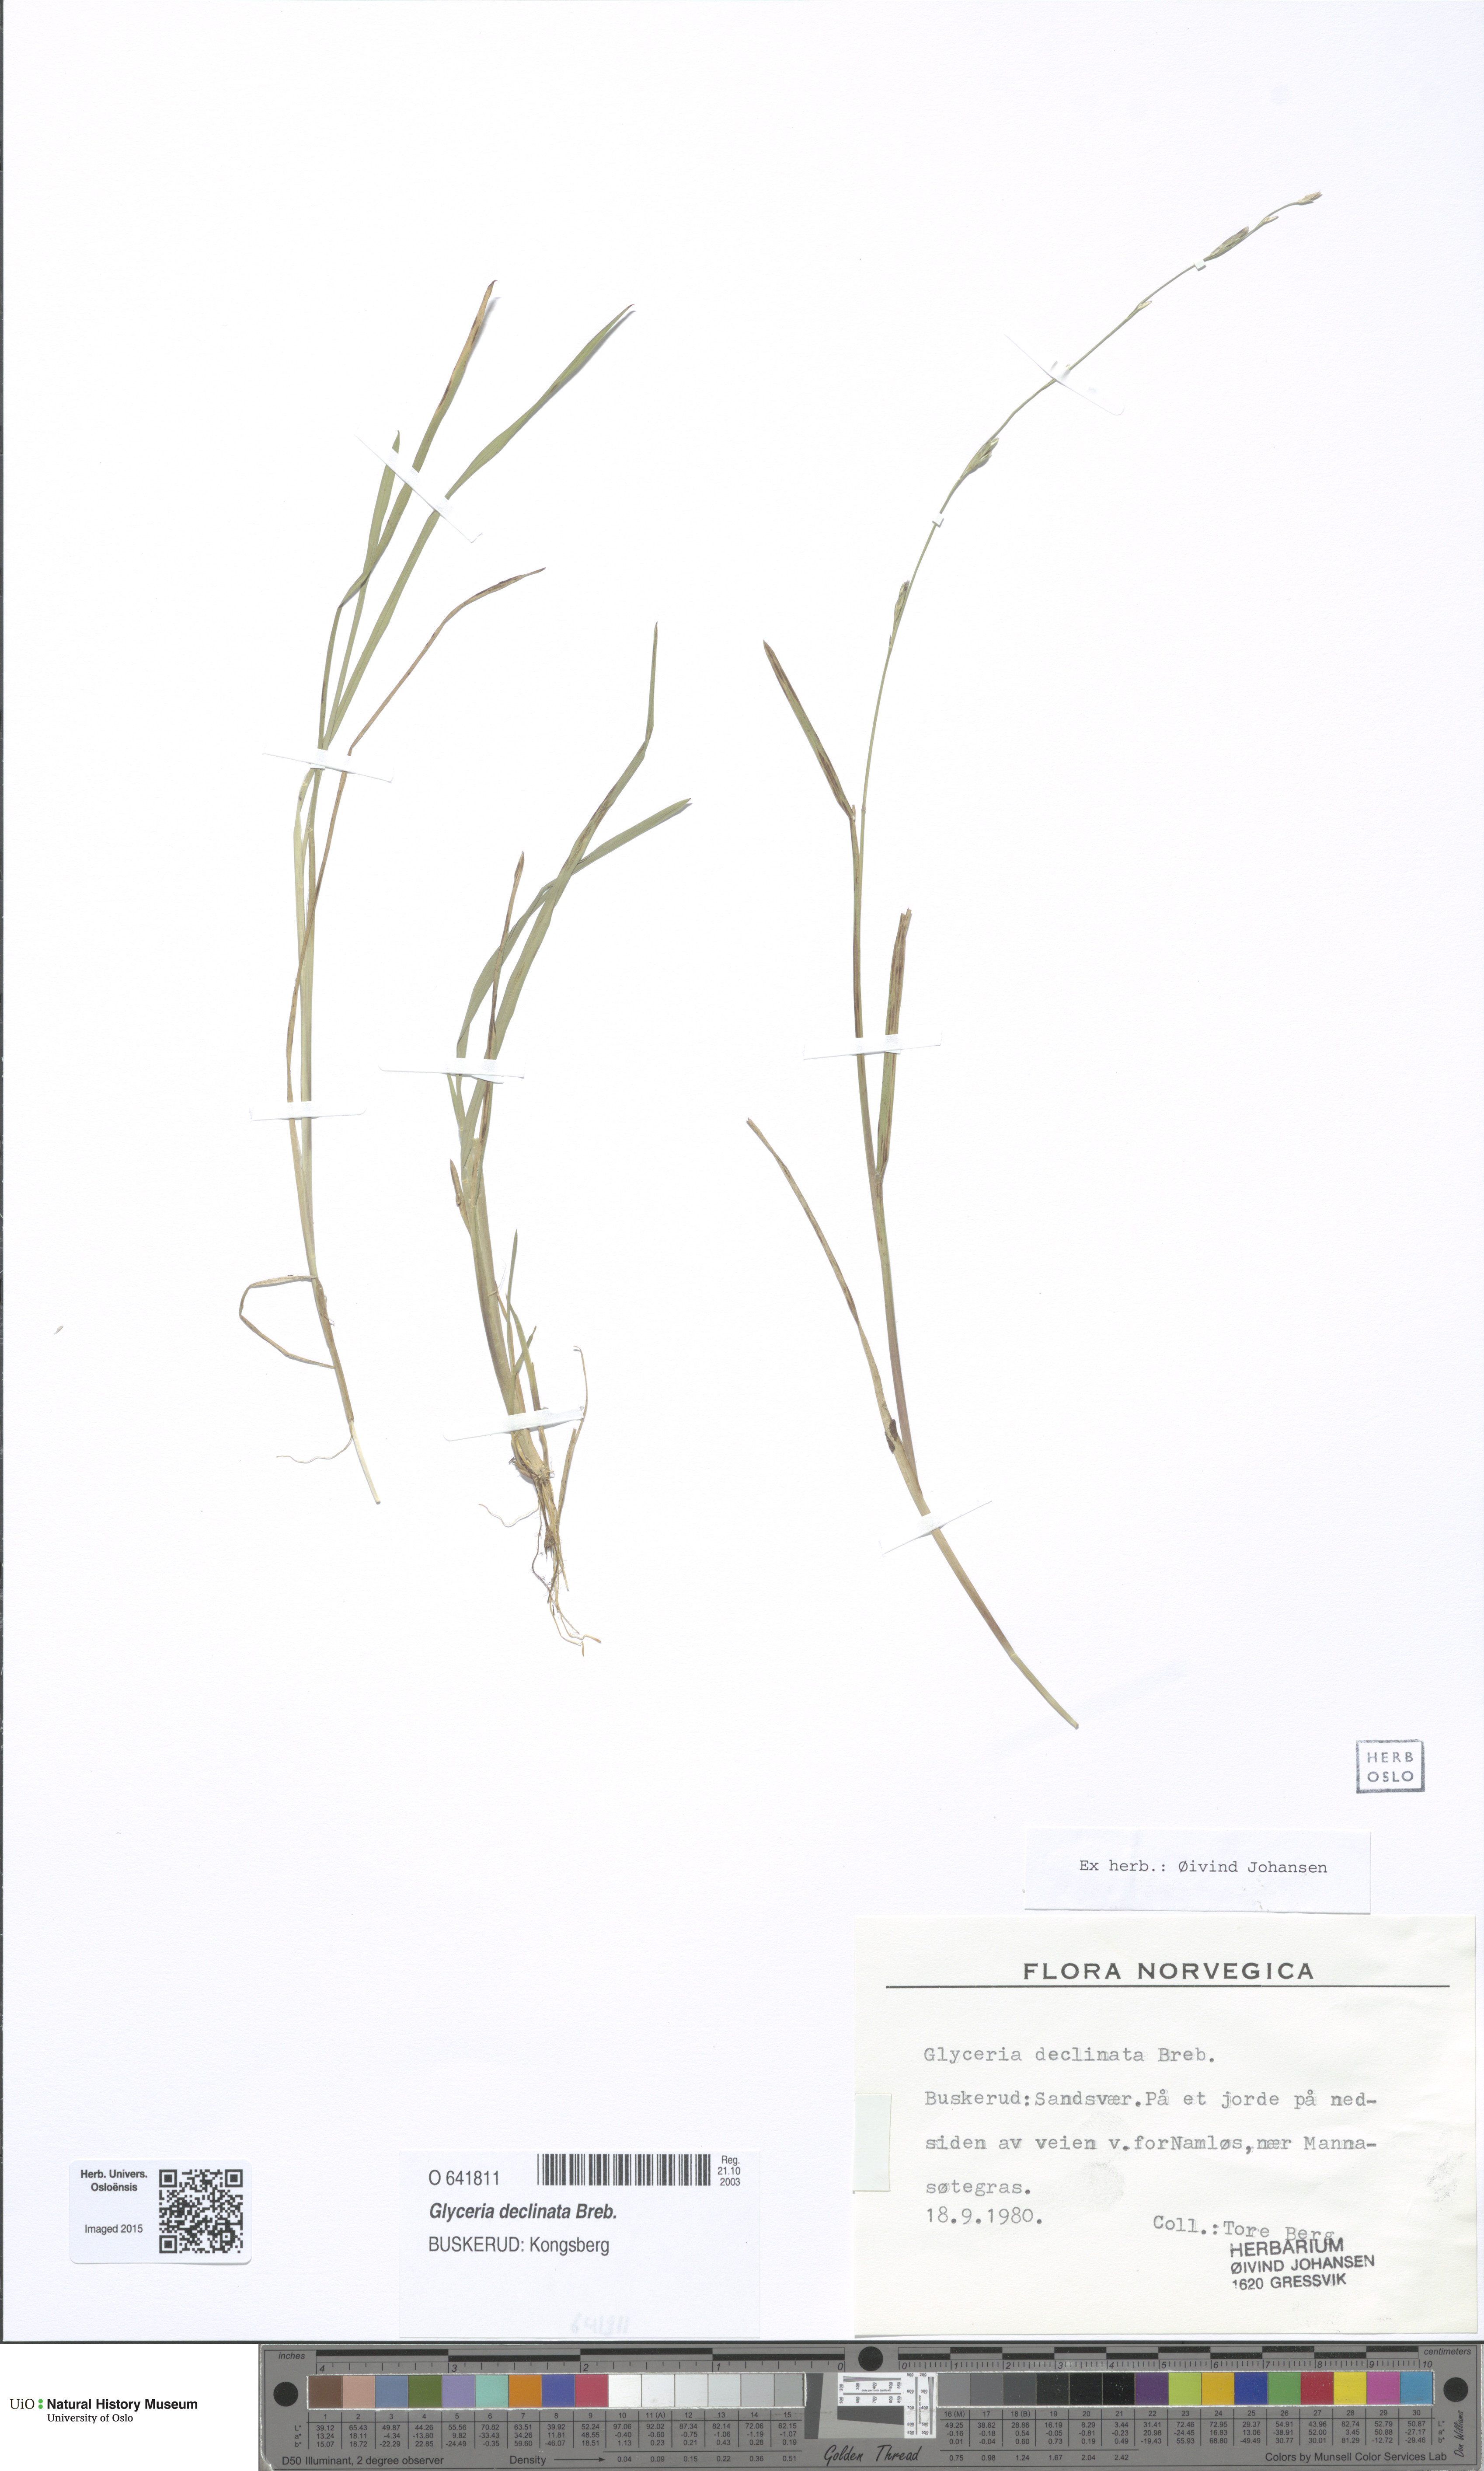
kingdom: Plantae
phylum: Tracheophyta
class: Liliopsida
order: Poales
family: Poaceae
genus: Glyceria
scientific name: Glyceria declinata
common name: Small sweet-grass
